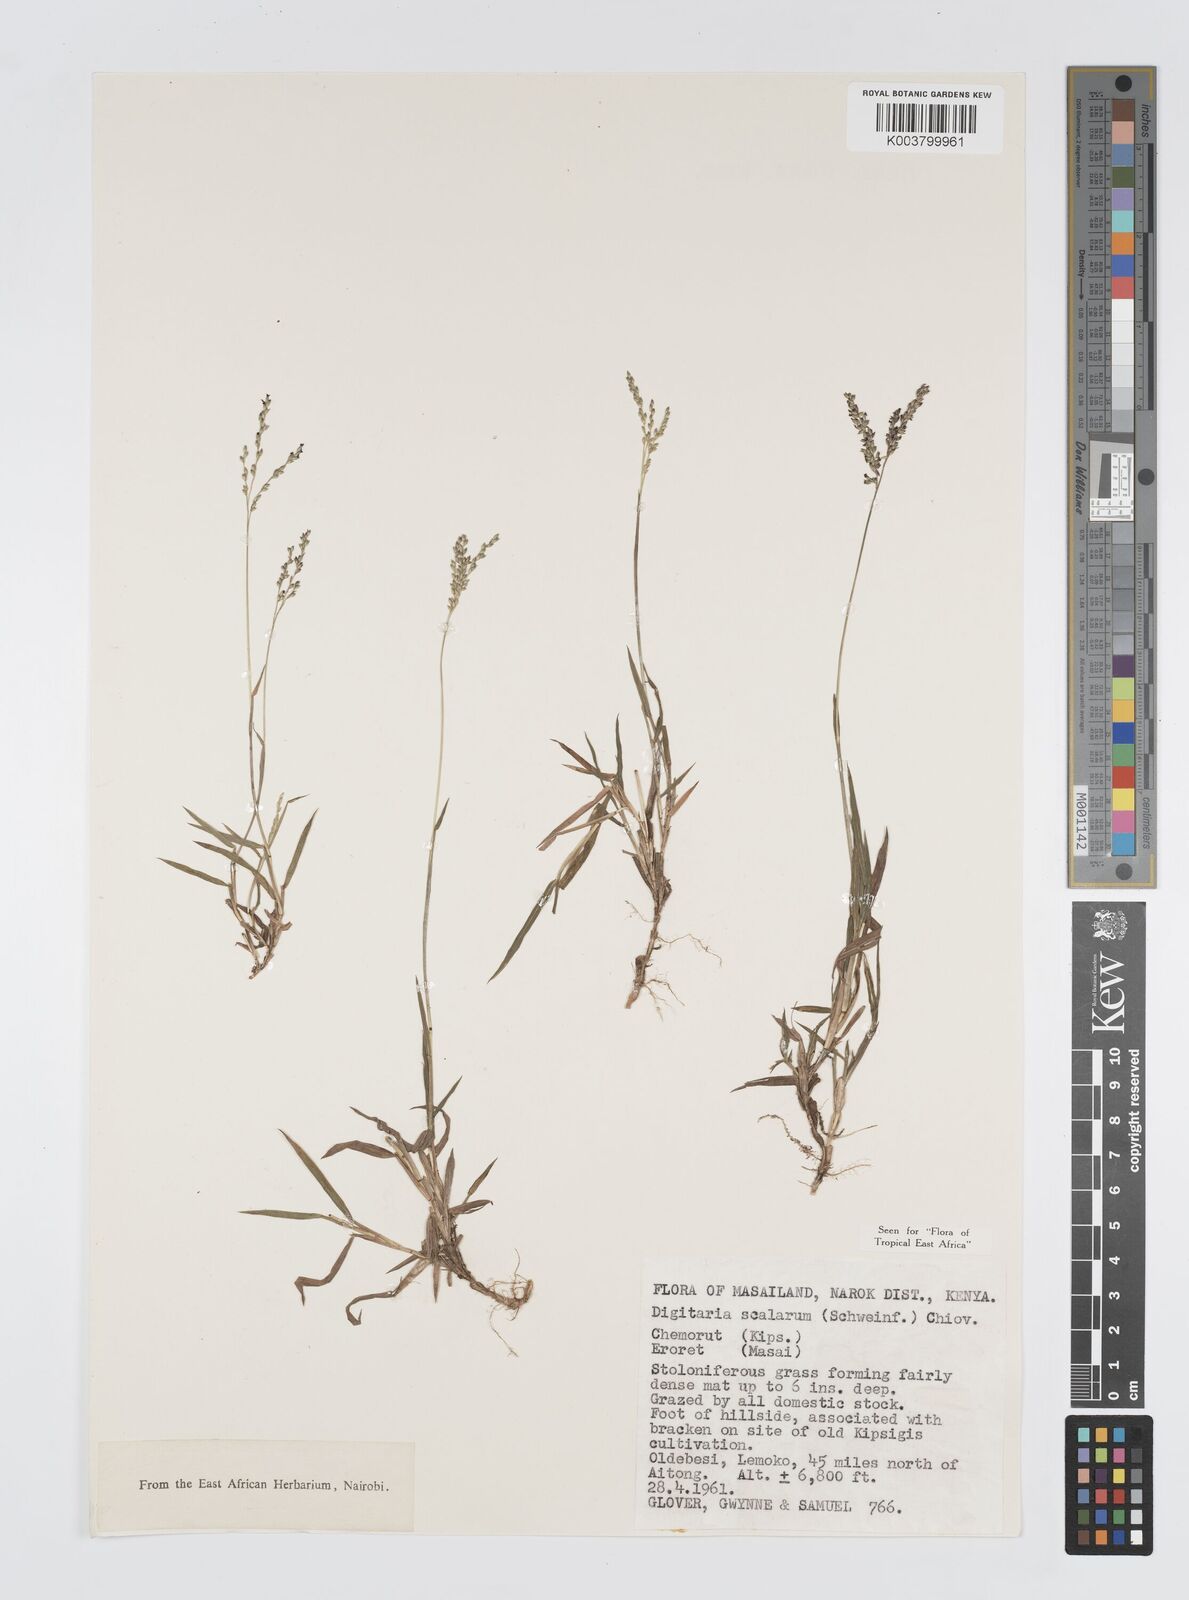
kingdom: Plantae
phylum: Tracheophyta
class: Liliopsida
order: Poales
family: Poaceae
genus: Digitaria
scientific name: Digitaria abyssinica
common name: African couchgrass
